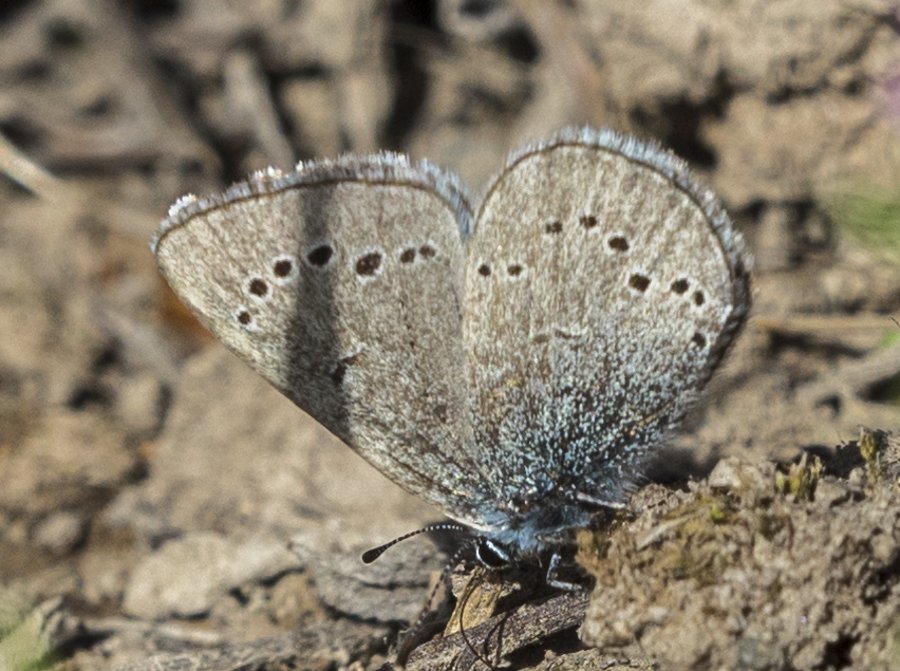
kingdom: Animalia
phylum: Arthropoda
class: Insecta
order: Lepidoptera
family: Lycaenidae
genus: Glaucopsyche
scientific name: Glaucopsyche lygdamus
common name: Silvery Blue
